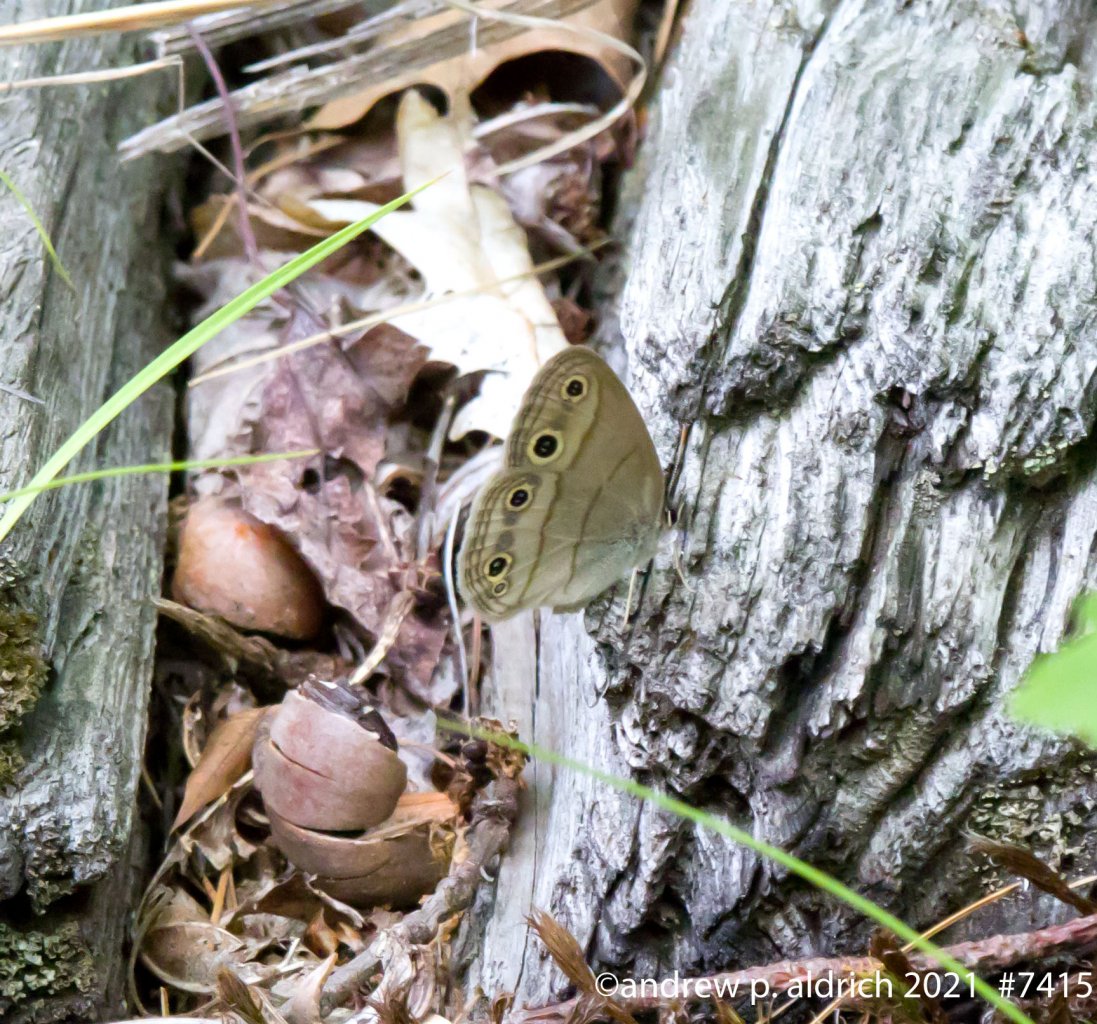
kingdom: Animalia
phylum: Arthropoda
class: Insecta
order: Lepidoptera
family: Nymphalidae
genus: Euptychia
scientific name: Euptychia cymela
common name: Little Wood Satyr
